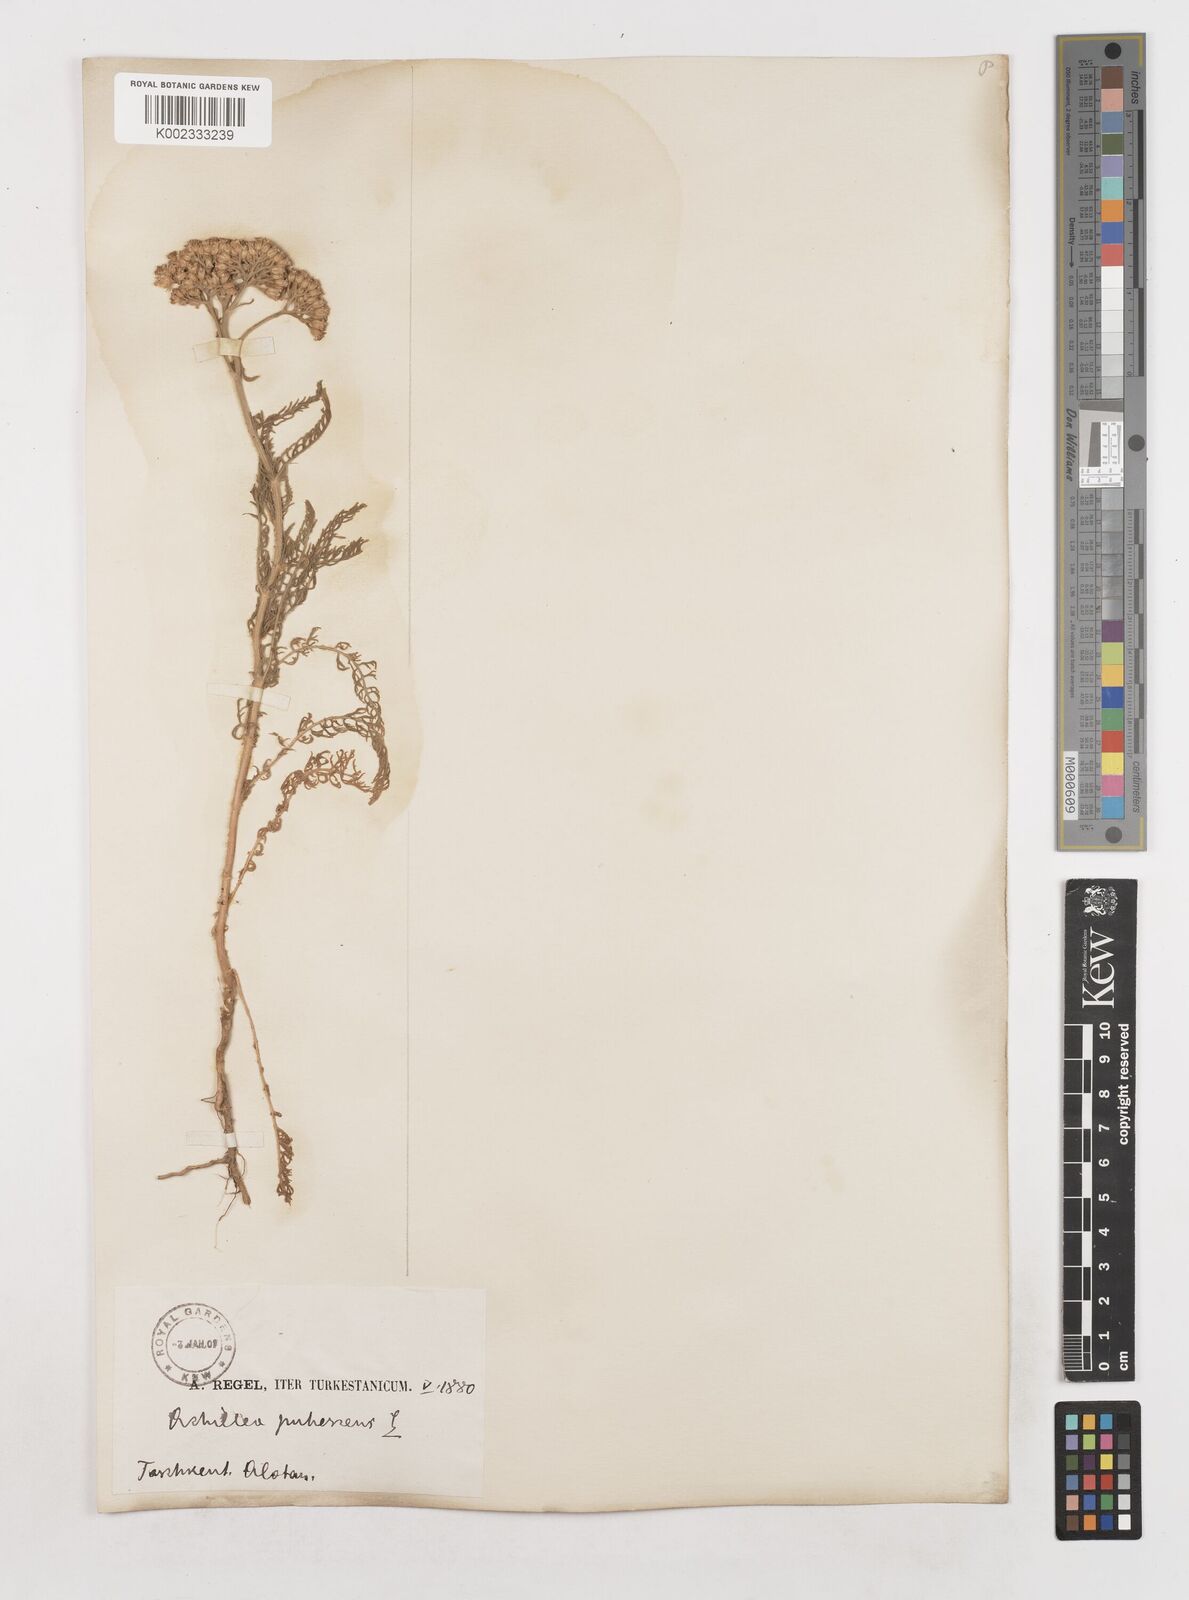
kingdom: Plantae
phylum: Tracheophyta
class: Magnoliopsida
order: Asterales
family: Asteraceae
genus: Achillea
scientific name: Achillea micrantha
